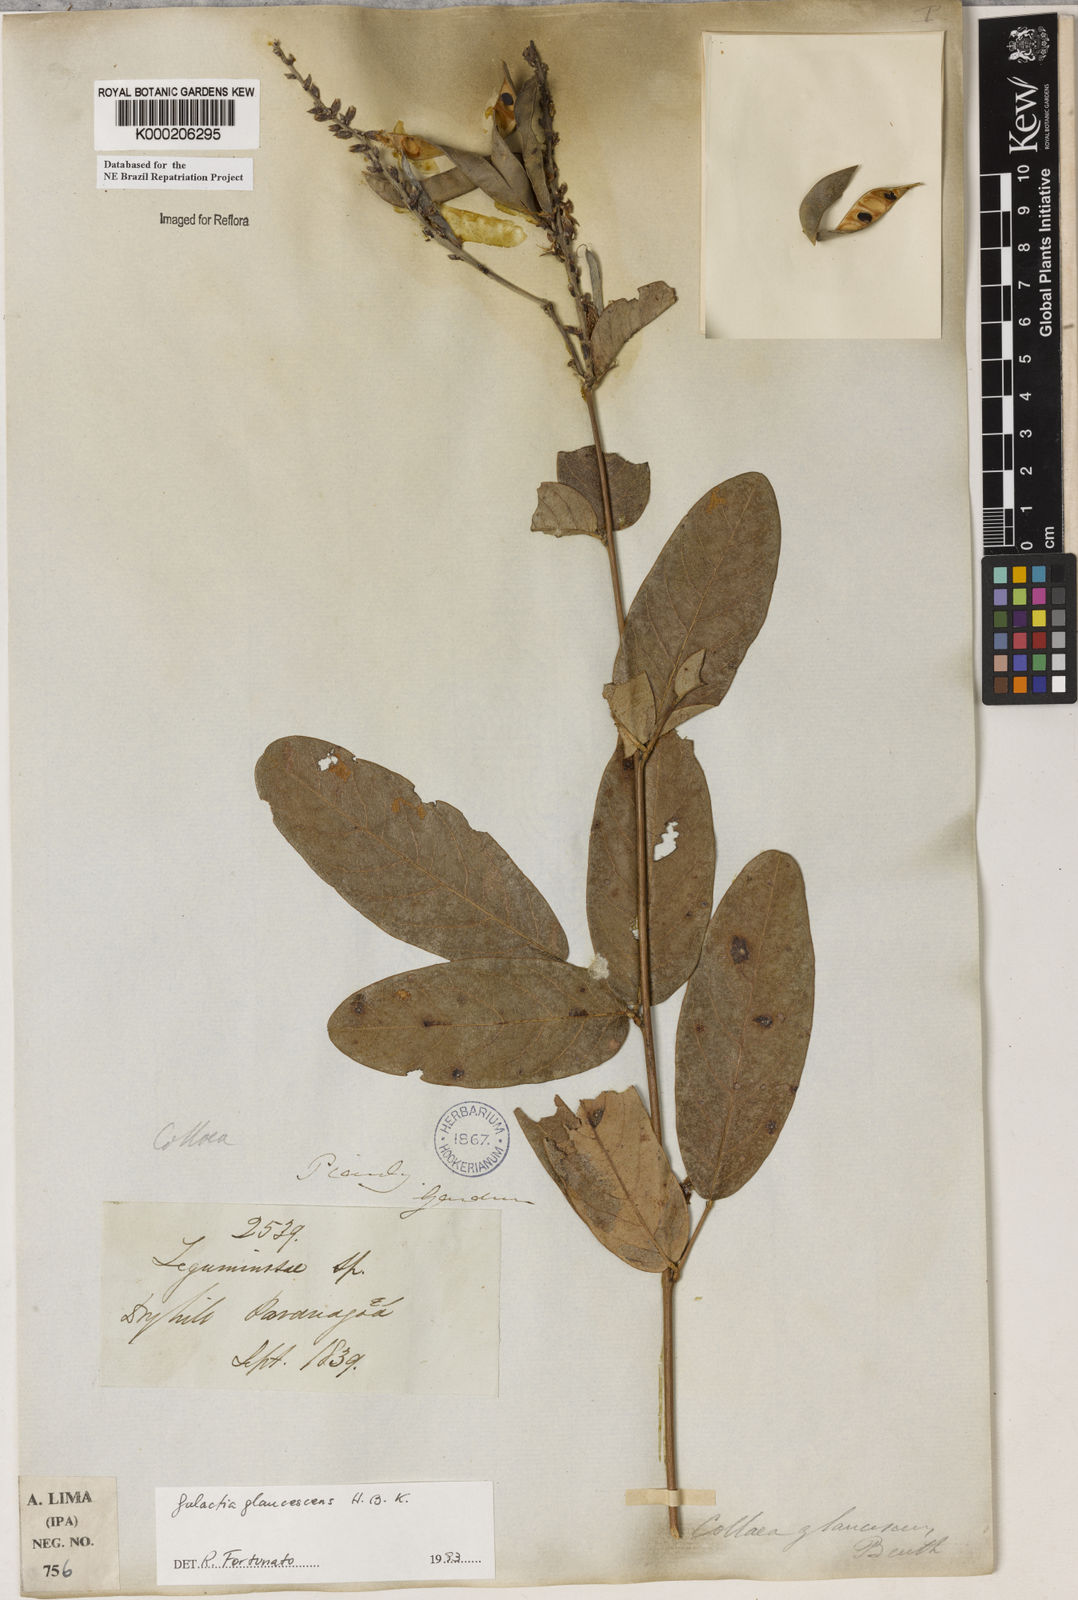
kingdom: Plantae
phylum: Tracheophyta
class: Magnoliopsida
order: Fabales
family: Fabaceae
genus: Galactia
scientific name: Galactia glaucescens
